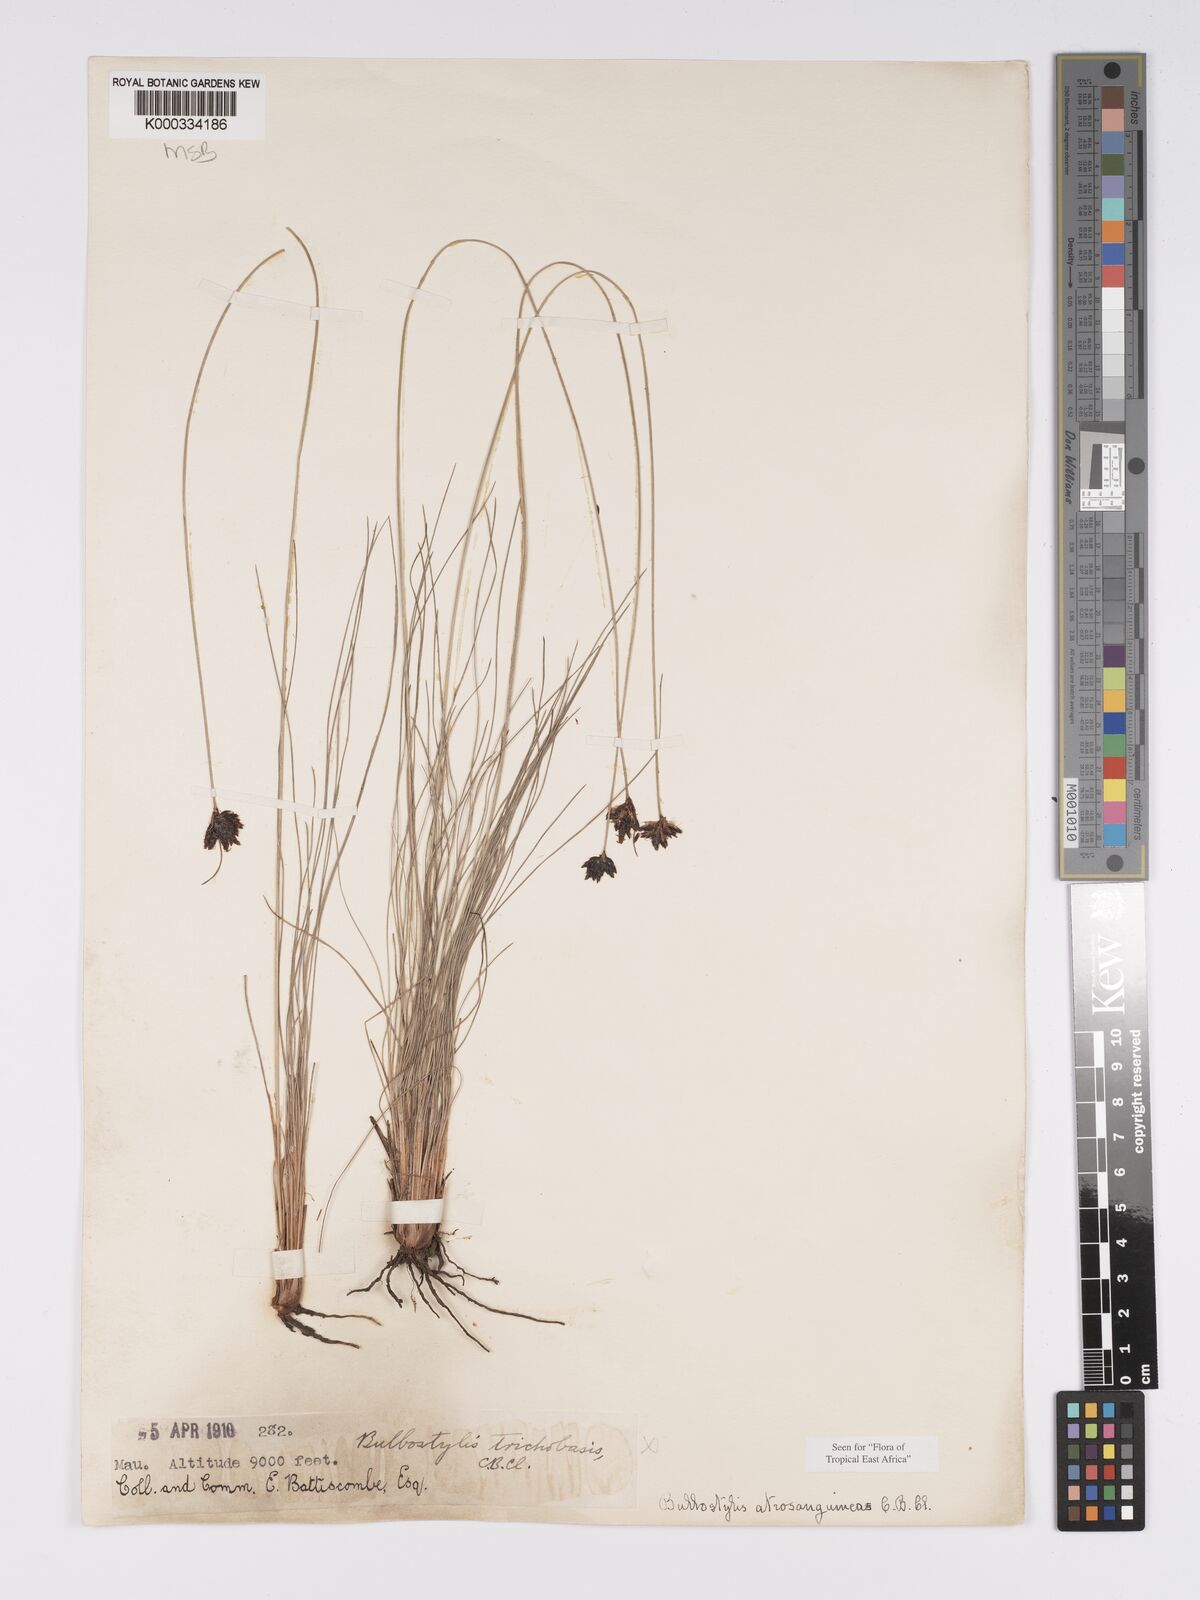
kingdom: Plantae
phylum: Tracheophyta
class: Liliopsida
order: Poales
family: Cyperaceae
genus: Bulbostylis
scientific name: Bulbostylis atrosanguinea
